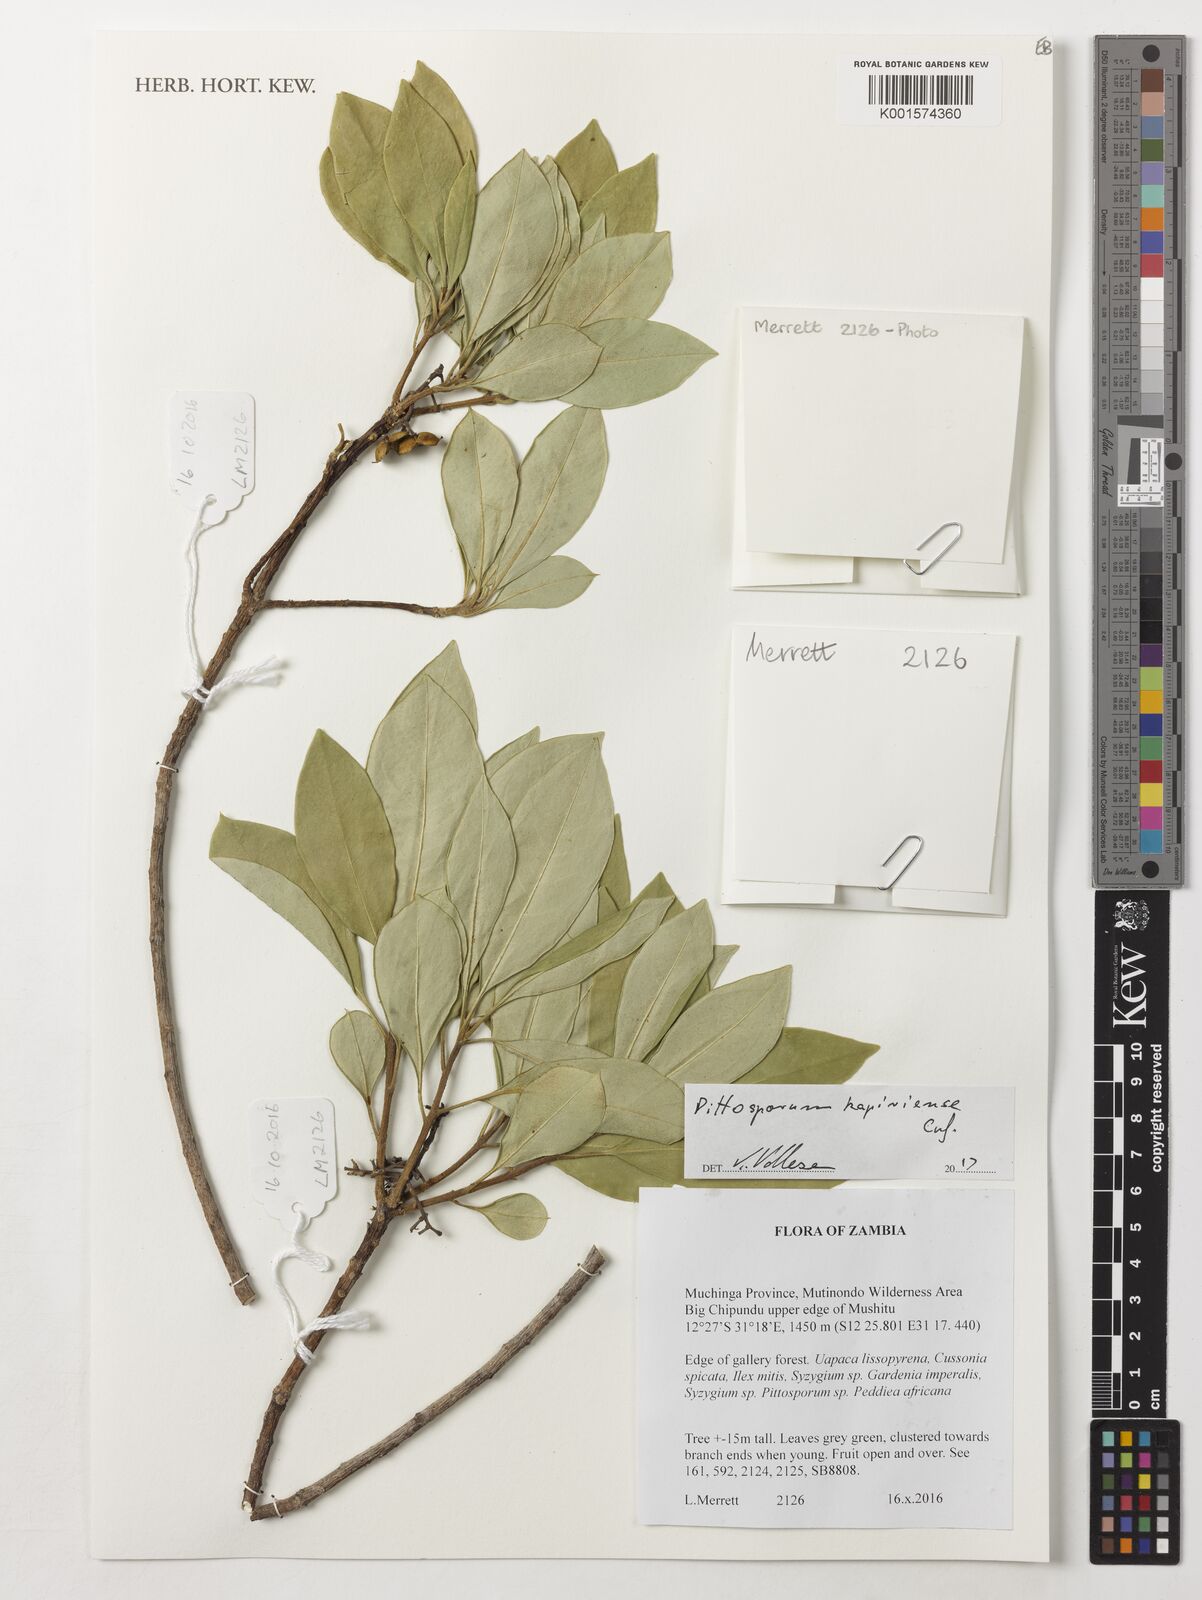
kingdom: Plantae
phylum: Tracheophyta
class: Magnoliopsida
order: Apiales
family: Pittosporaceae
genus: Pittosporum
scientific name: Pittosporum viridiflorum
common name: Cape cheesewood
